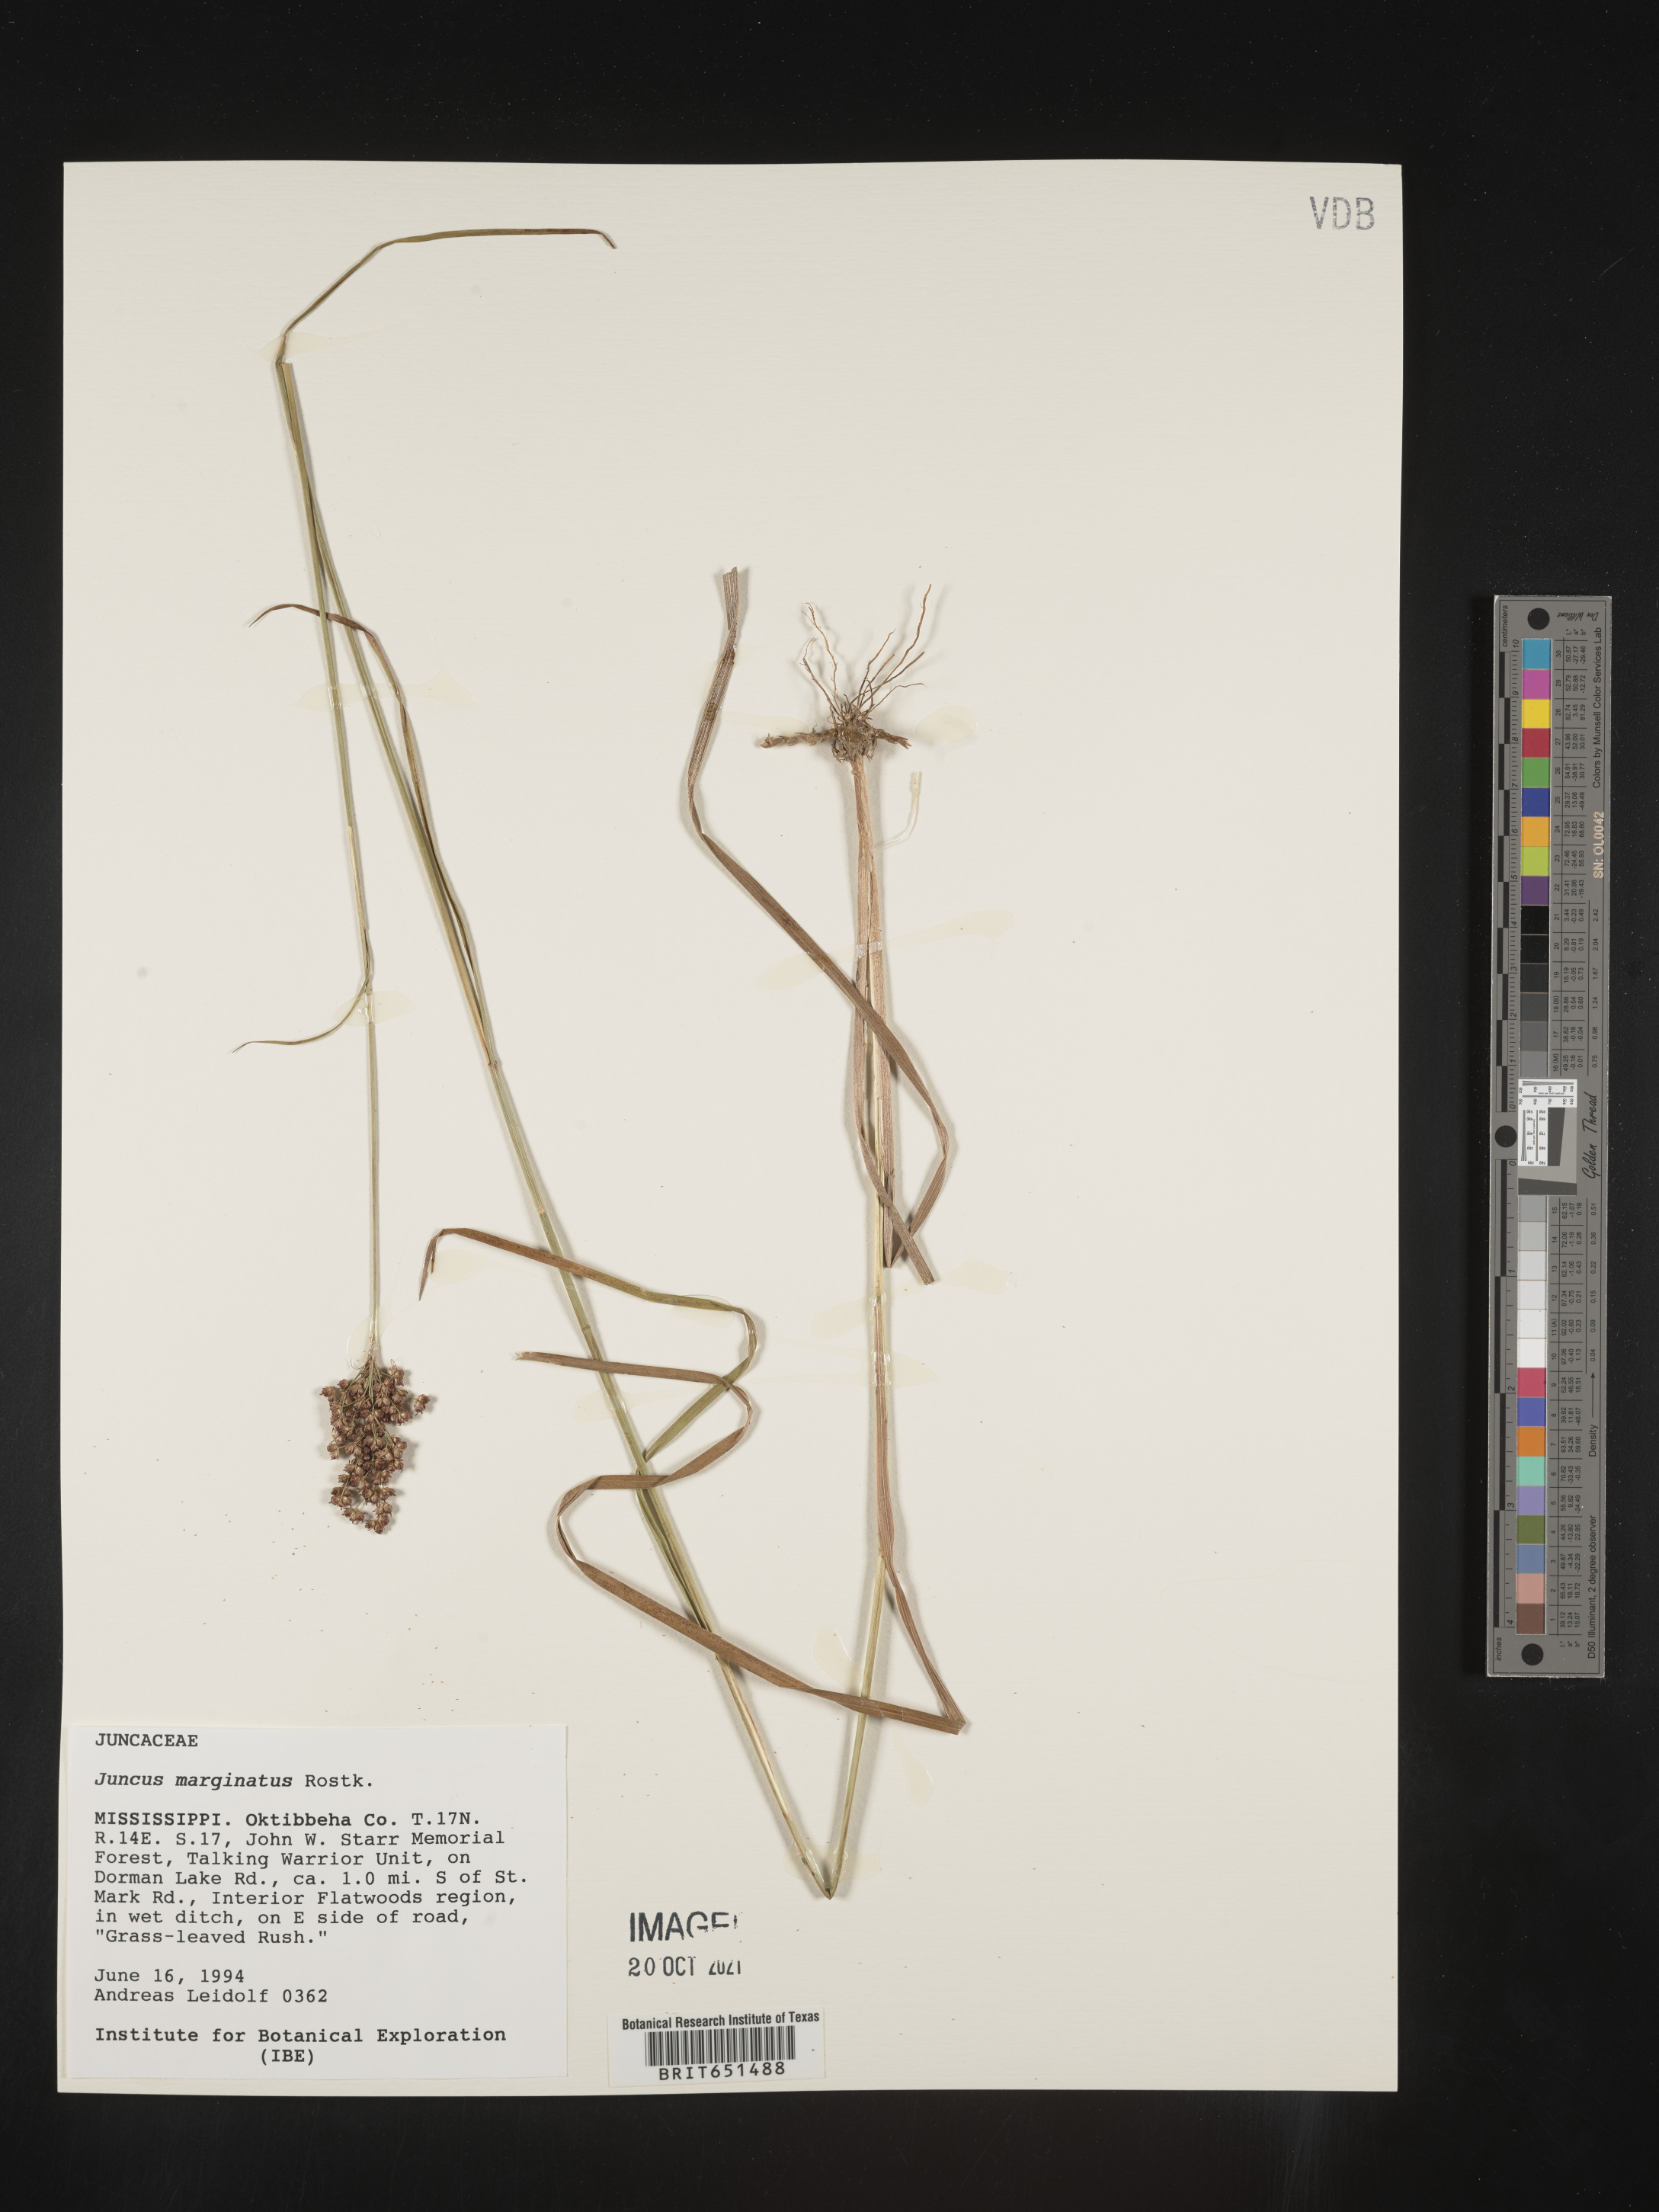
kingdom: Plantae
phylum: Tracheophyta
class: Liliopsida
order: Poales
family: Juncaceae
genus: Juncus
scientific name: Juncus marginatus
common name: Grass-leaf rush
